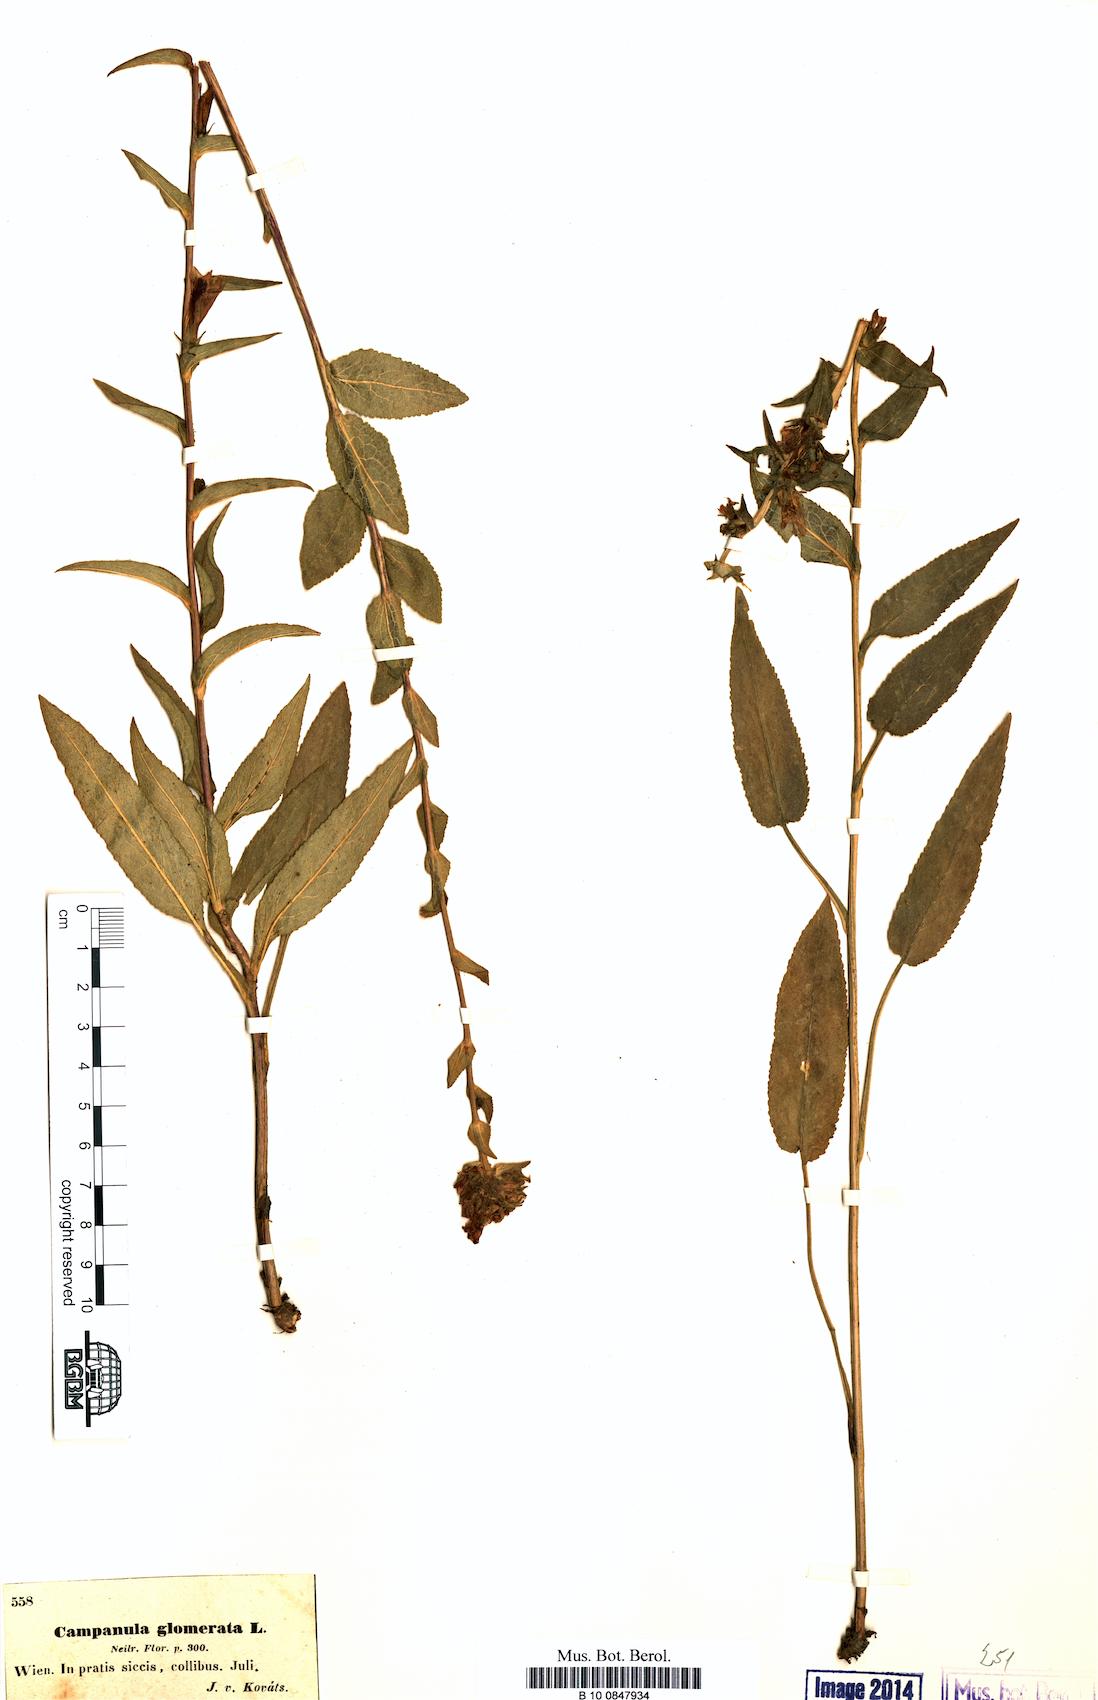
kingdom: Plantae
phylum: Tracheophyta
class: Magnoliopsida
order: Asterales
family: Campanulaceae
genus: Campanula
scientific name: Campanula glomerata
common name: Clustered bellflower
